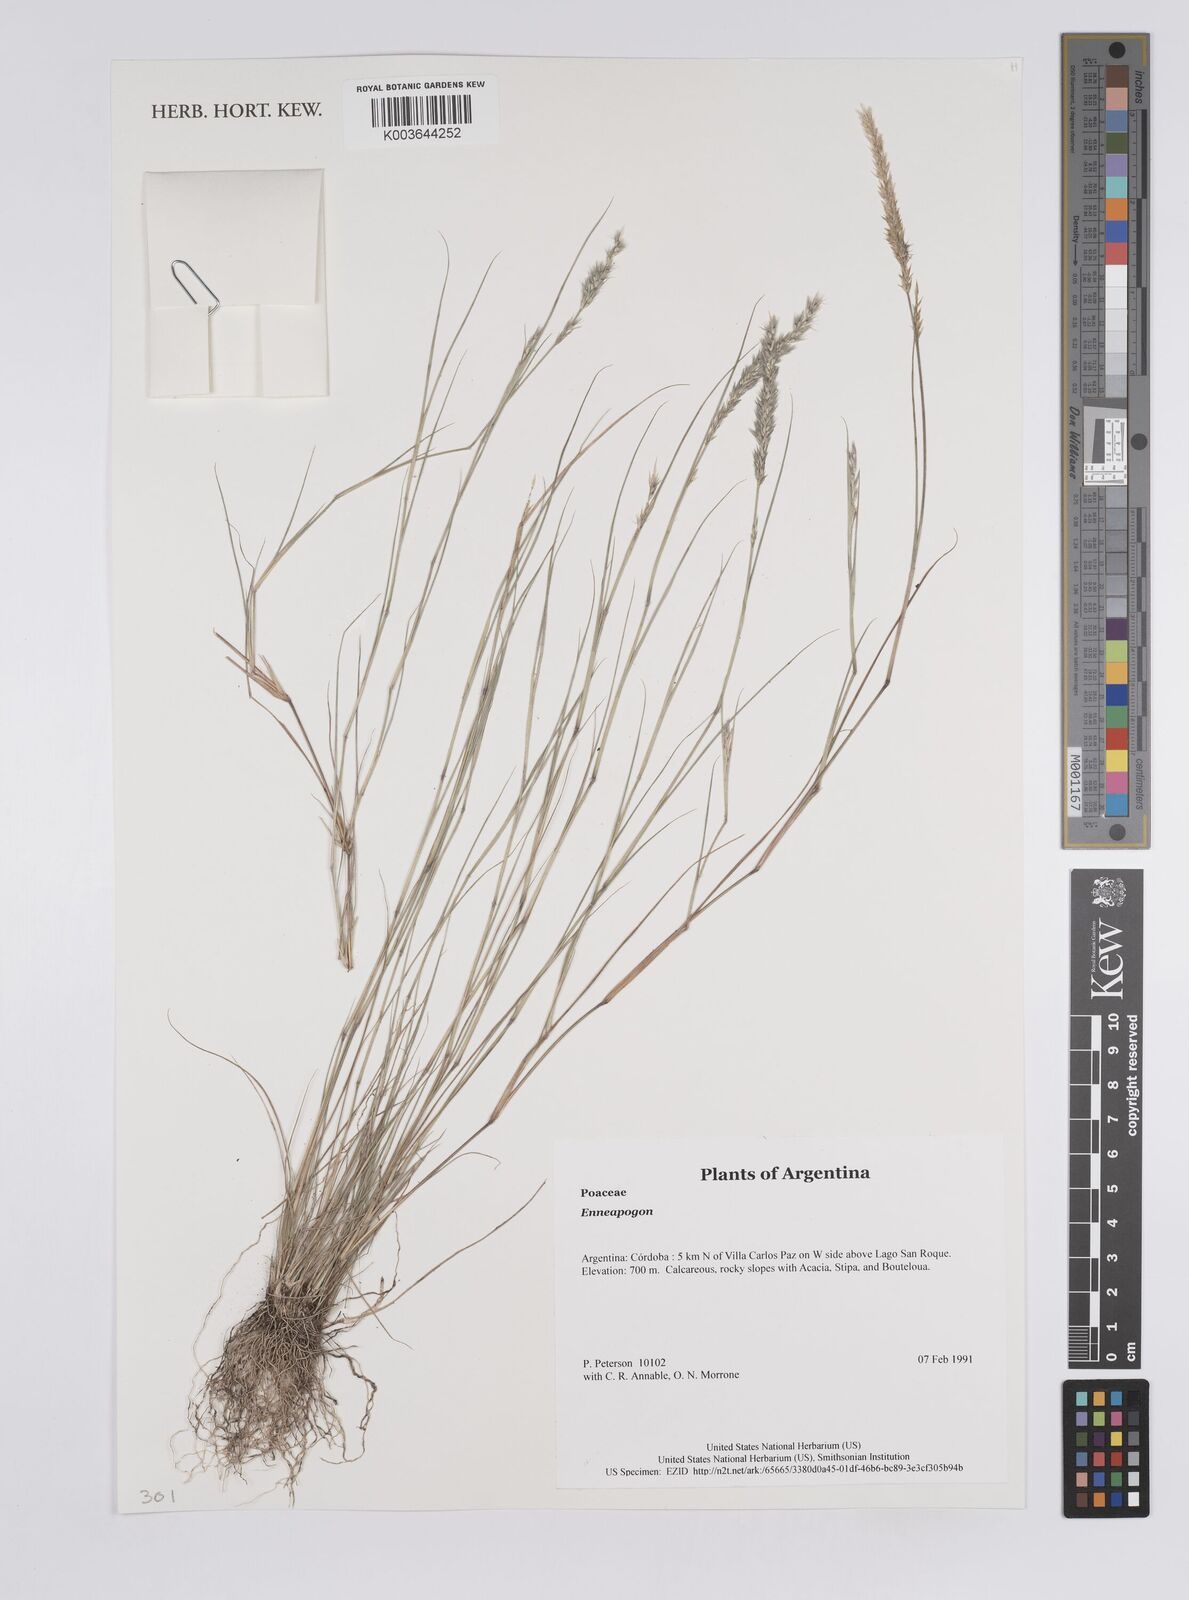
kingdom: Plantae
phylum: Tracheophyta
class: Liliopsida
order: Poales
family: Poaceae
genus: Enneapogon
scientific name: Enneapogon
